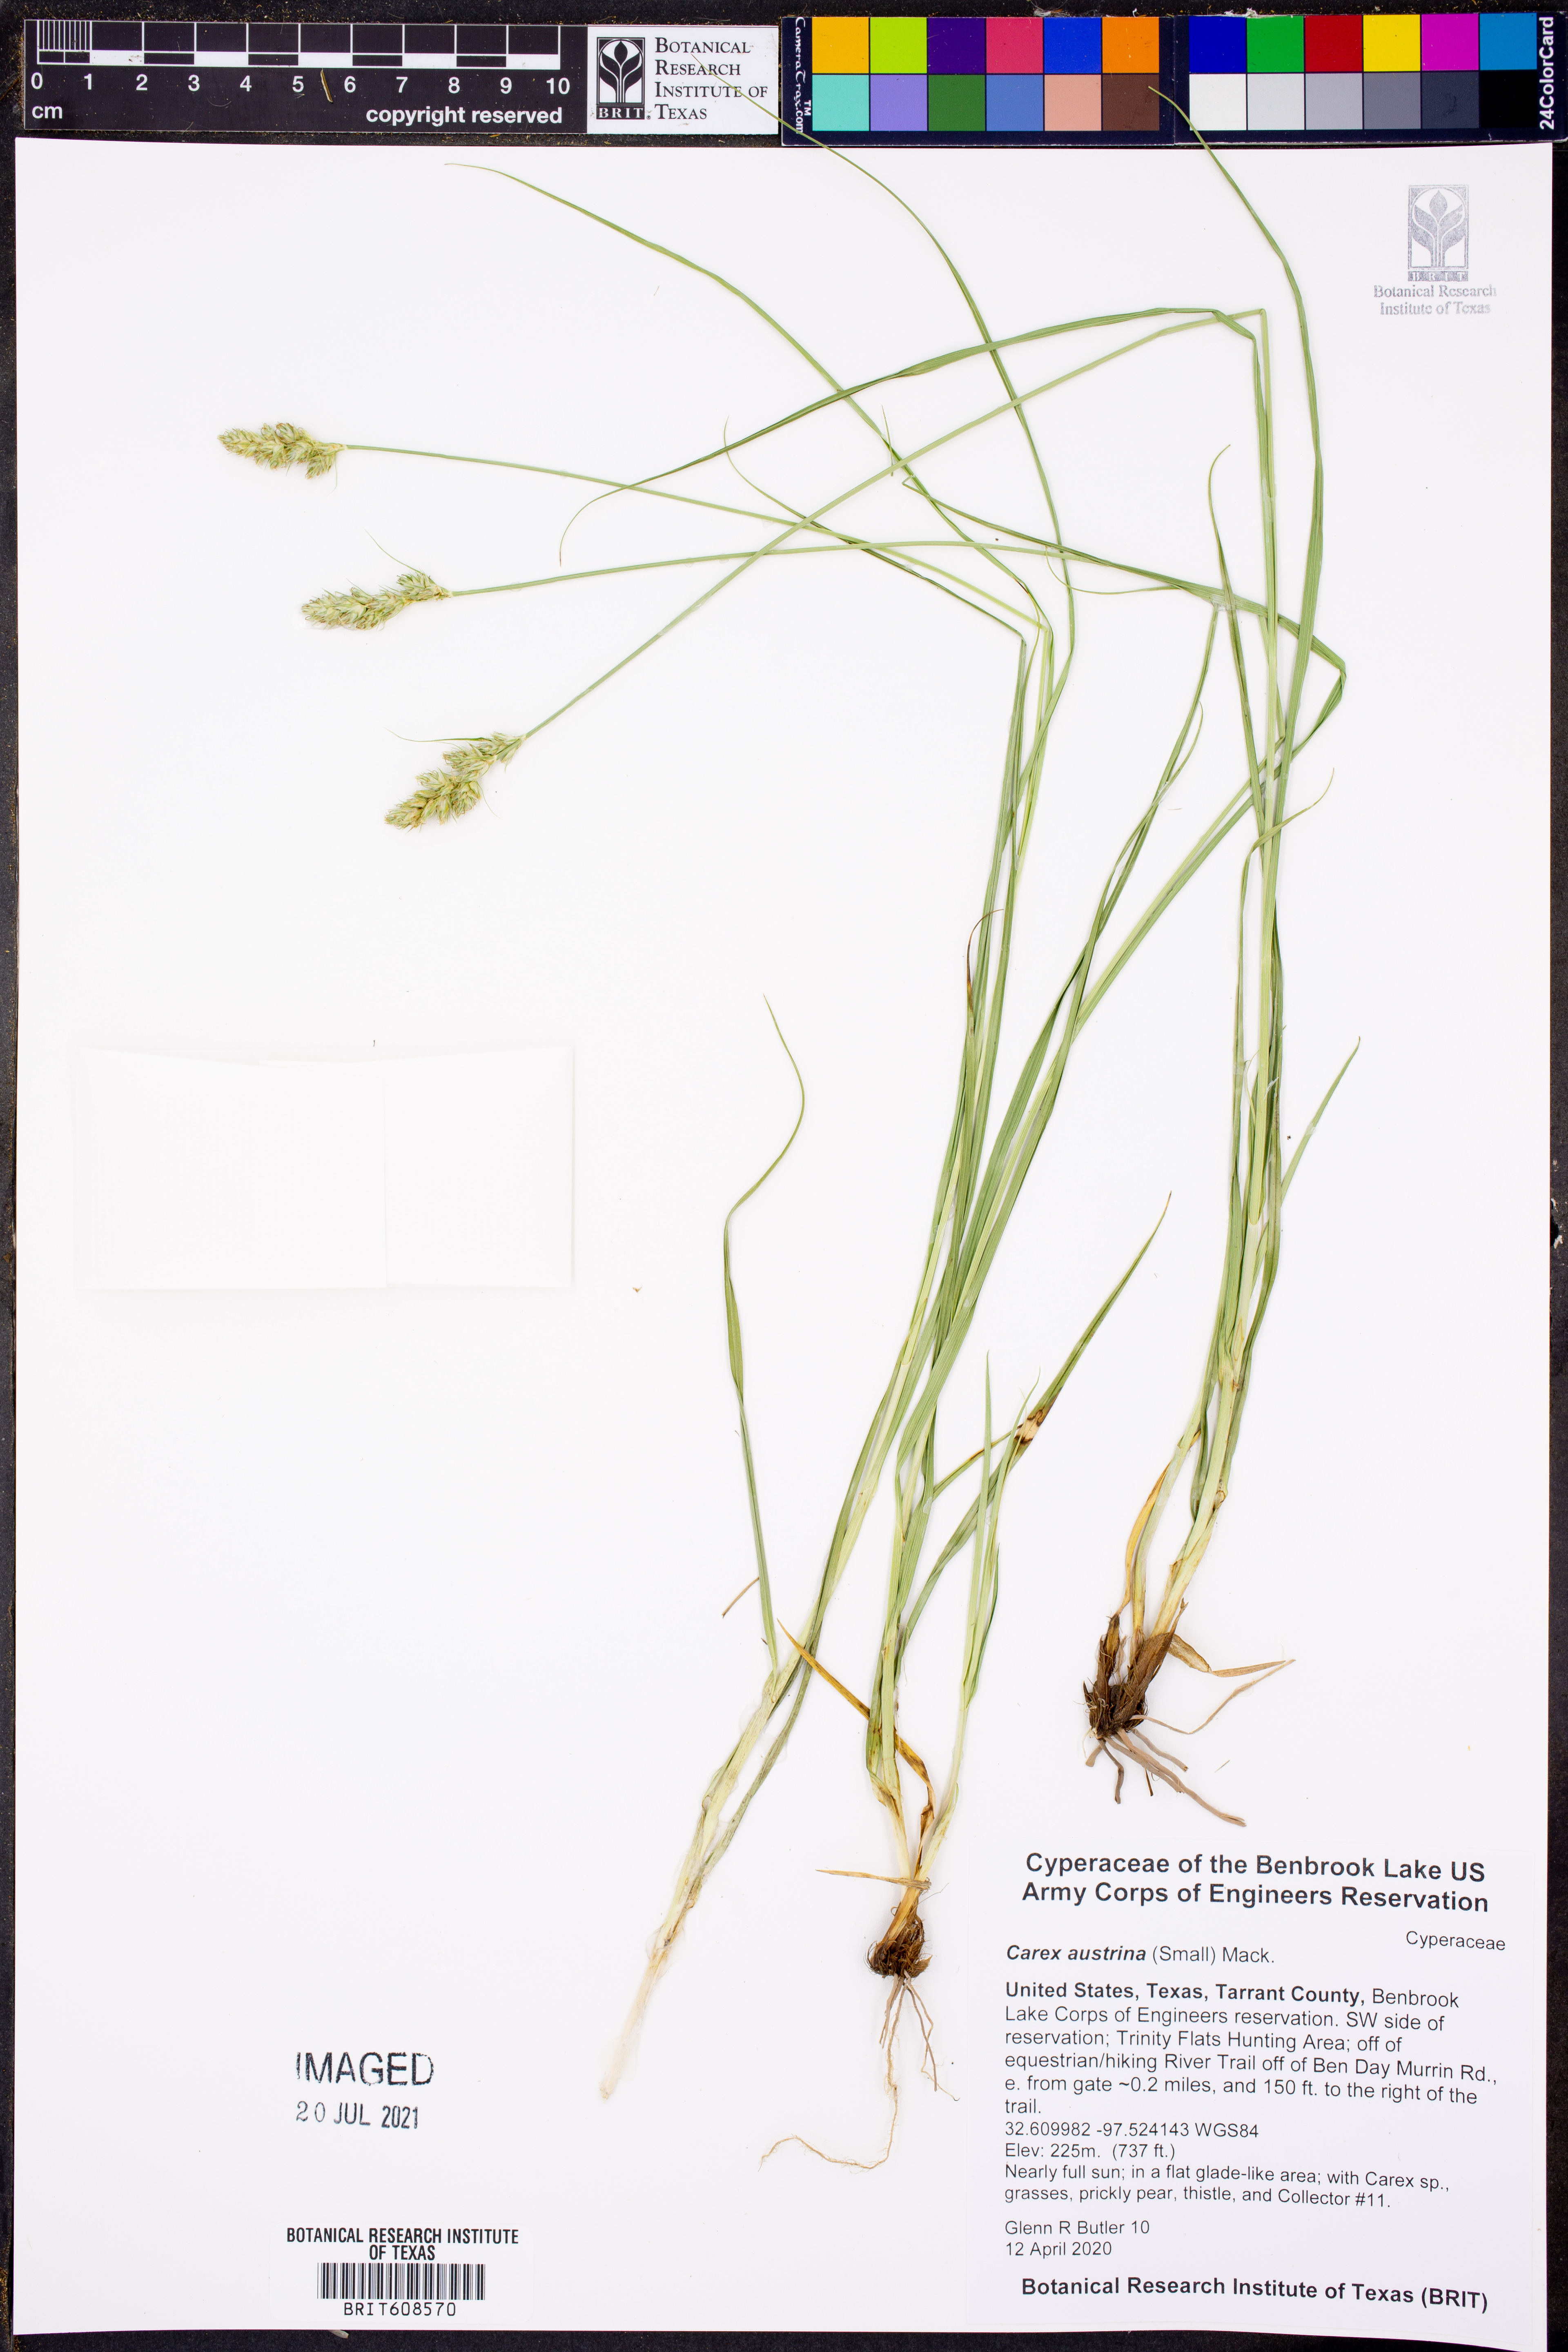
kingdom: Plantae
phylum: Tracheophyta
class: Liliopsida
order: Poales
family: Cyperaceae
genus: Carex
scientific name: Carex austrina
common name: Southern sedge
